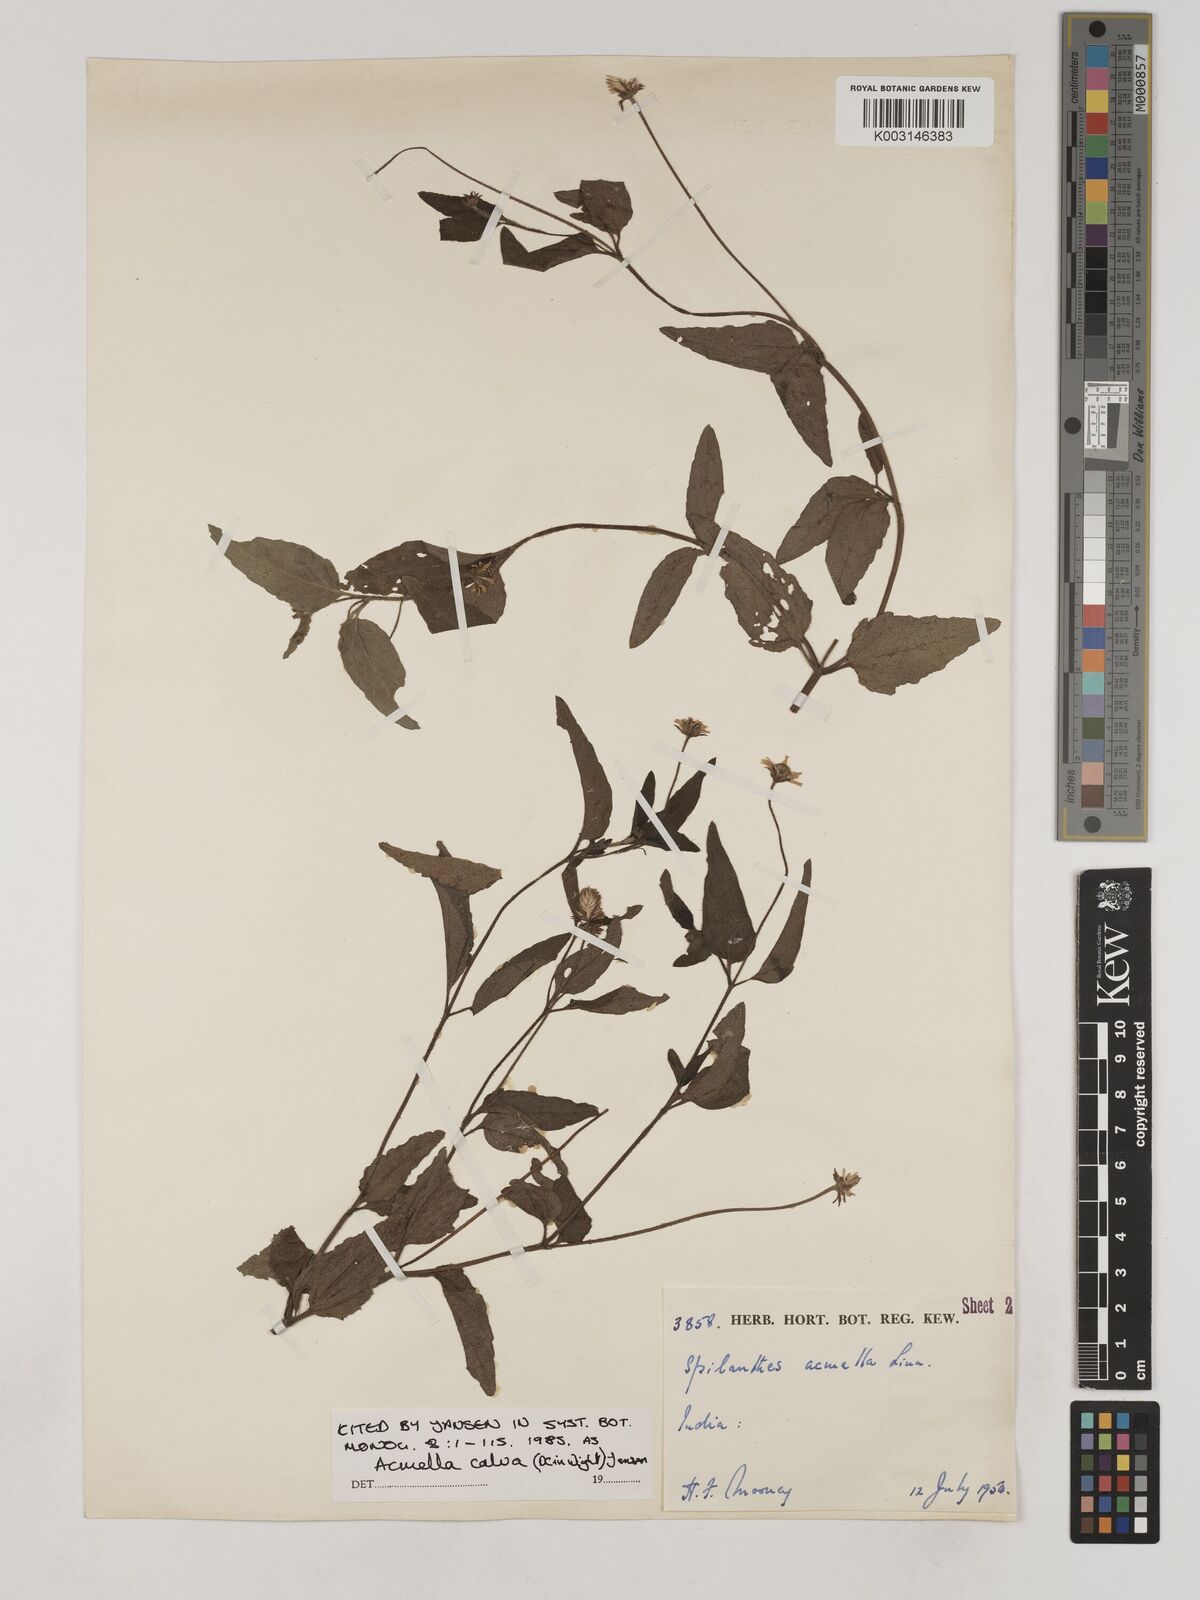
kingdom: Plantae
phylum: Tracheophyta
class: Magnoliopsida
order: Asterales
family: Asteraceae
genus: Acmella
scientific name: Acmella calva
